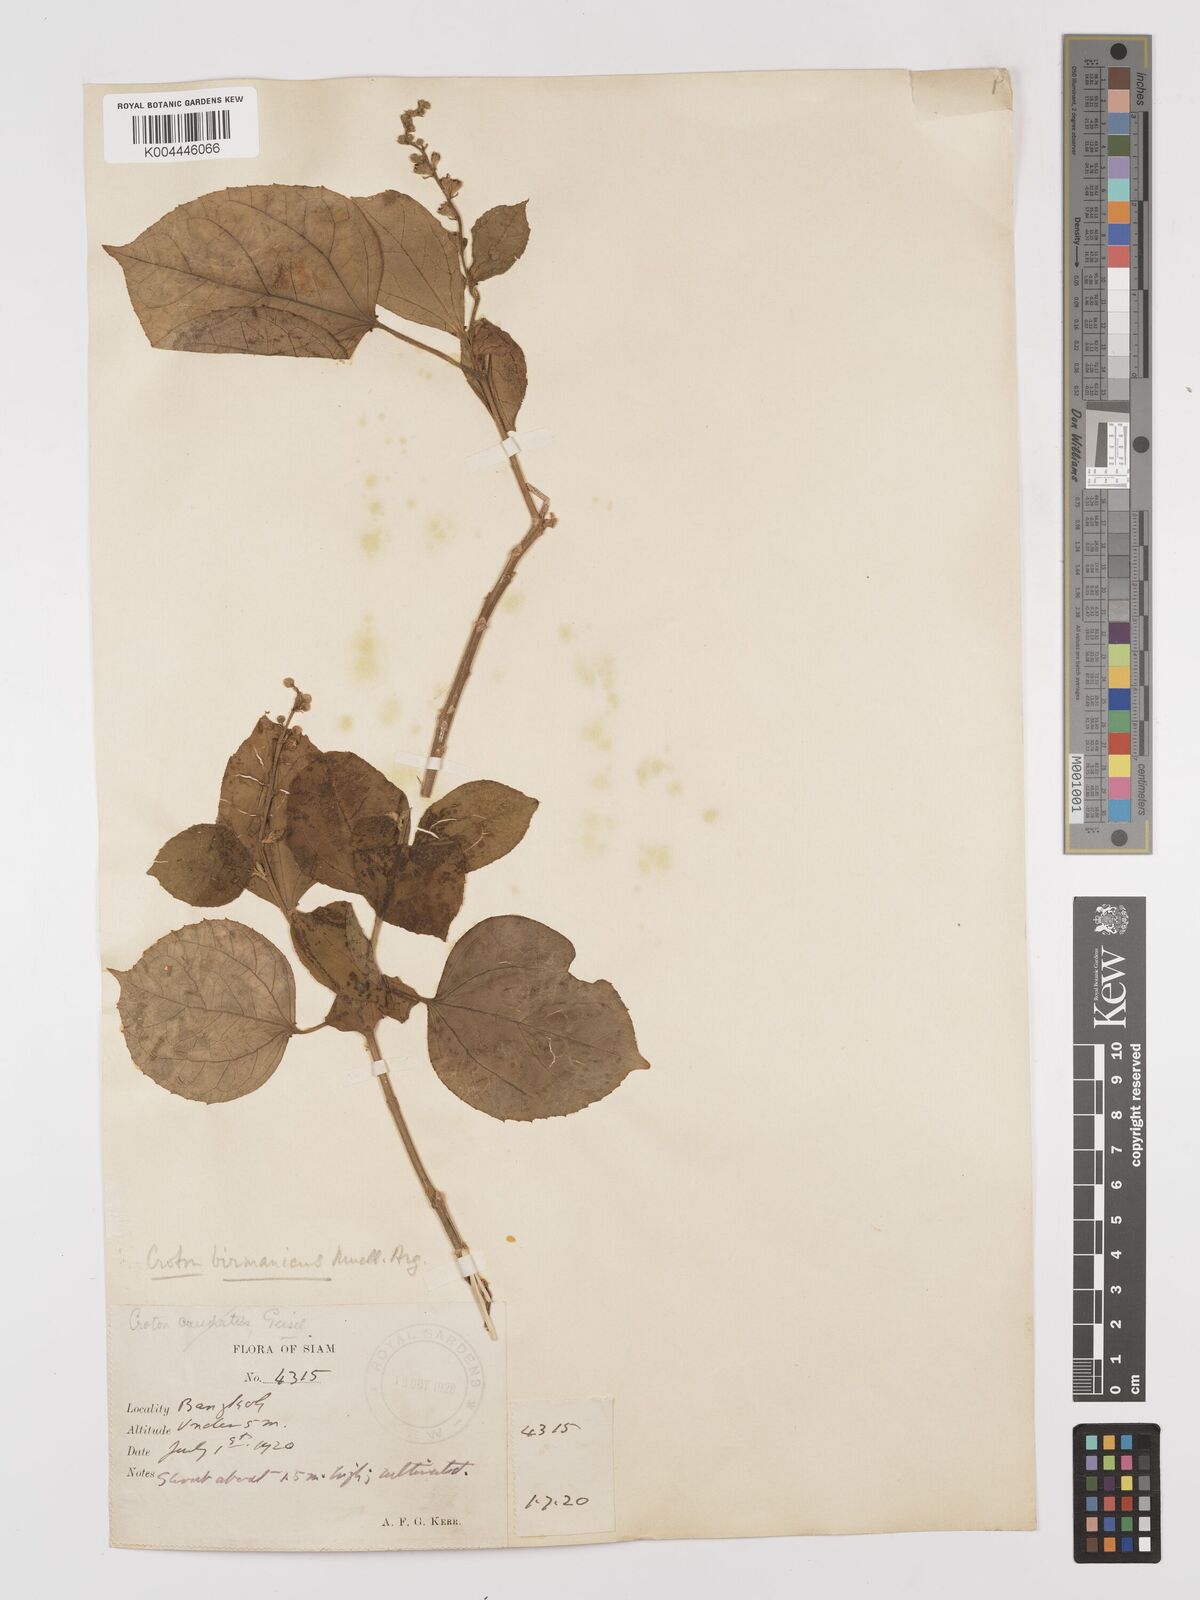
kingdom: Plantae
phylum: Tracheophyta
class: Magnoliopsida
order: Malpighiales
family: Euphorbiaceae
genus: Croton
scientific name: Croton tiglium
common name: Purging croton
